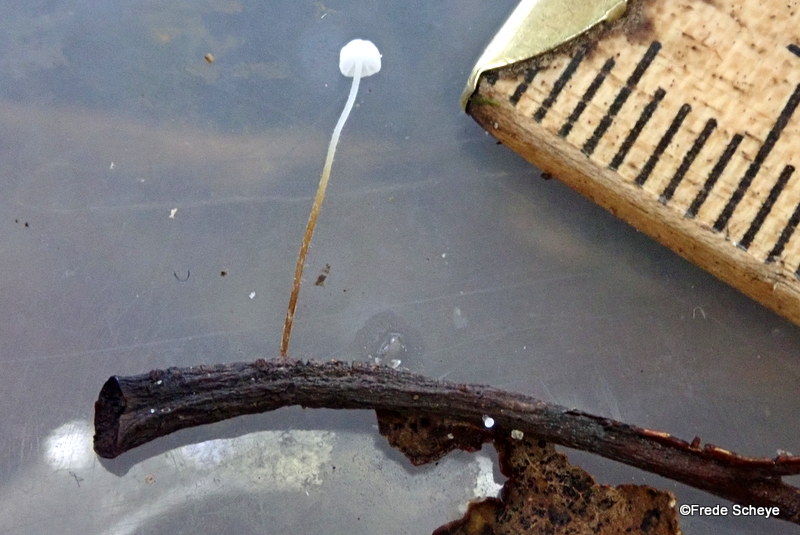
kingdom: Fungi
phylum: Basidiomycota
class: Agaricomycetes
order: Agaricales
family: Physalacriaceae
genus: Rhizomarasmius
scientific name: Rhizomarasmius setosus
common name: bøgeblads-bruskhat
